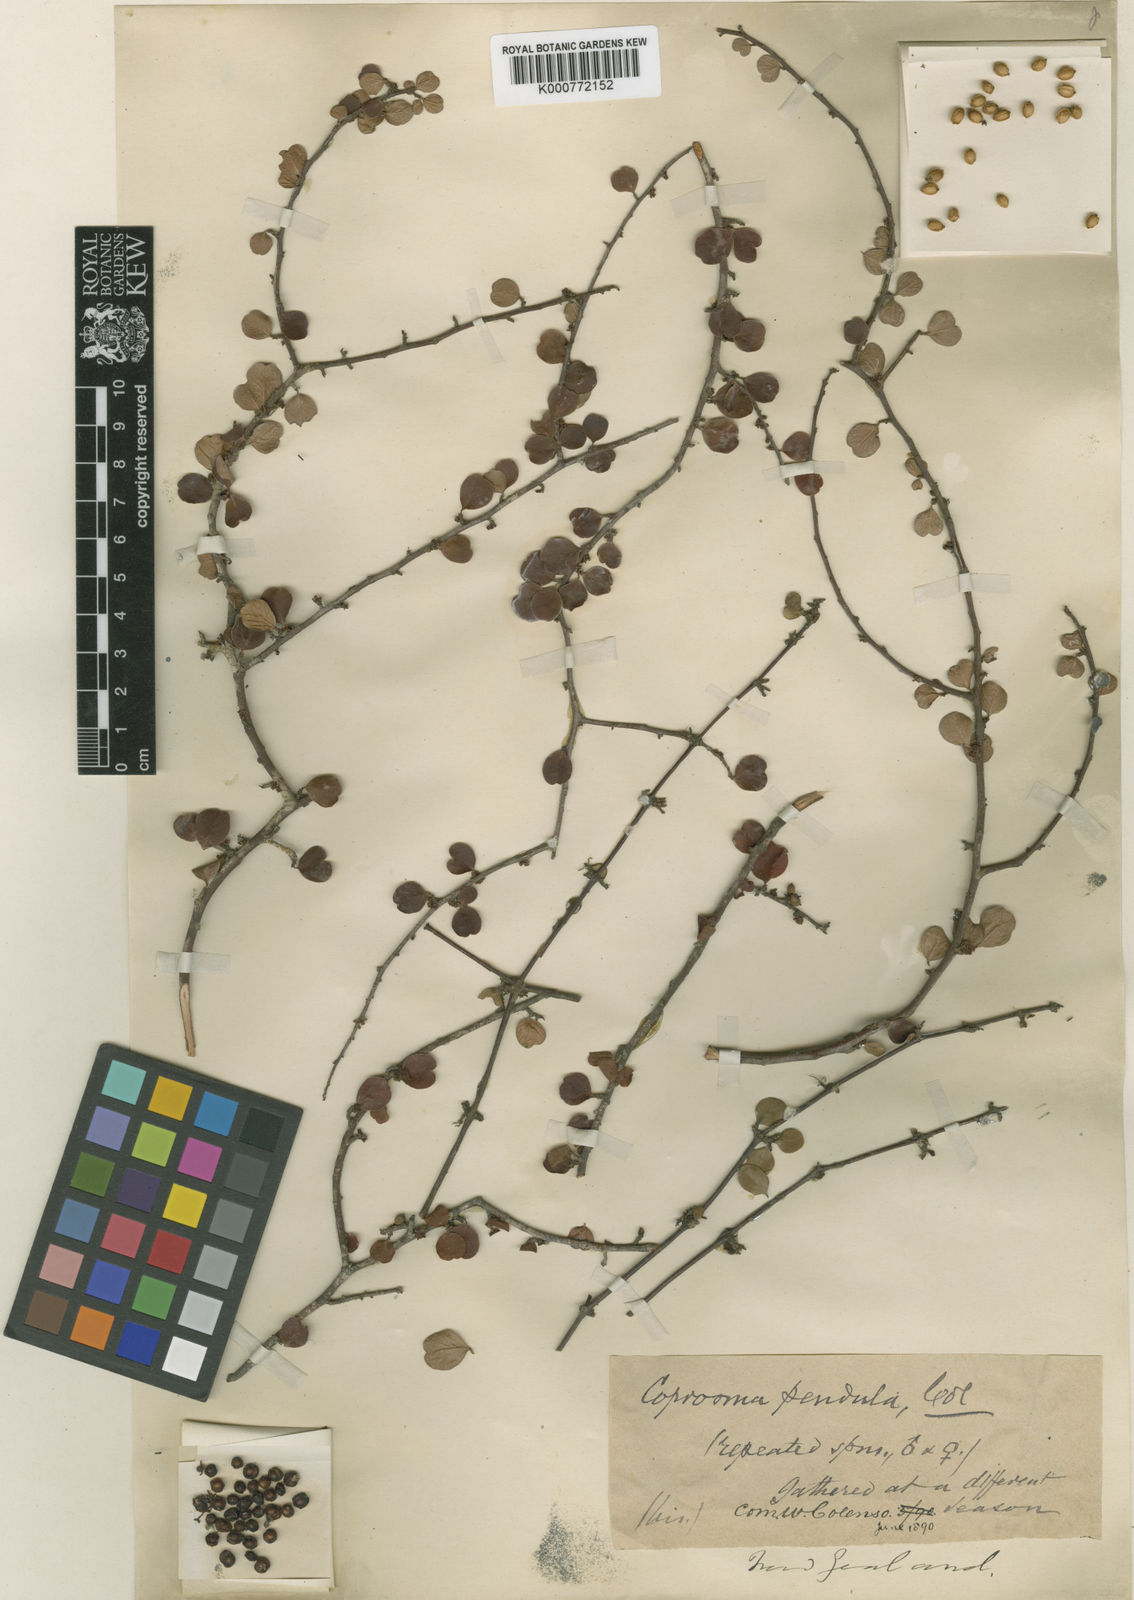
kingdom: Plantae
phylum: Tracheophyta
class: Magnoliopsida
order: Gentianales
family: Rubiaceae
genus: Coprosma
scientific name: Coprosma crassifolia
